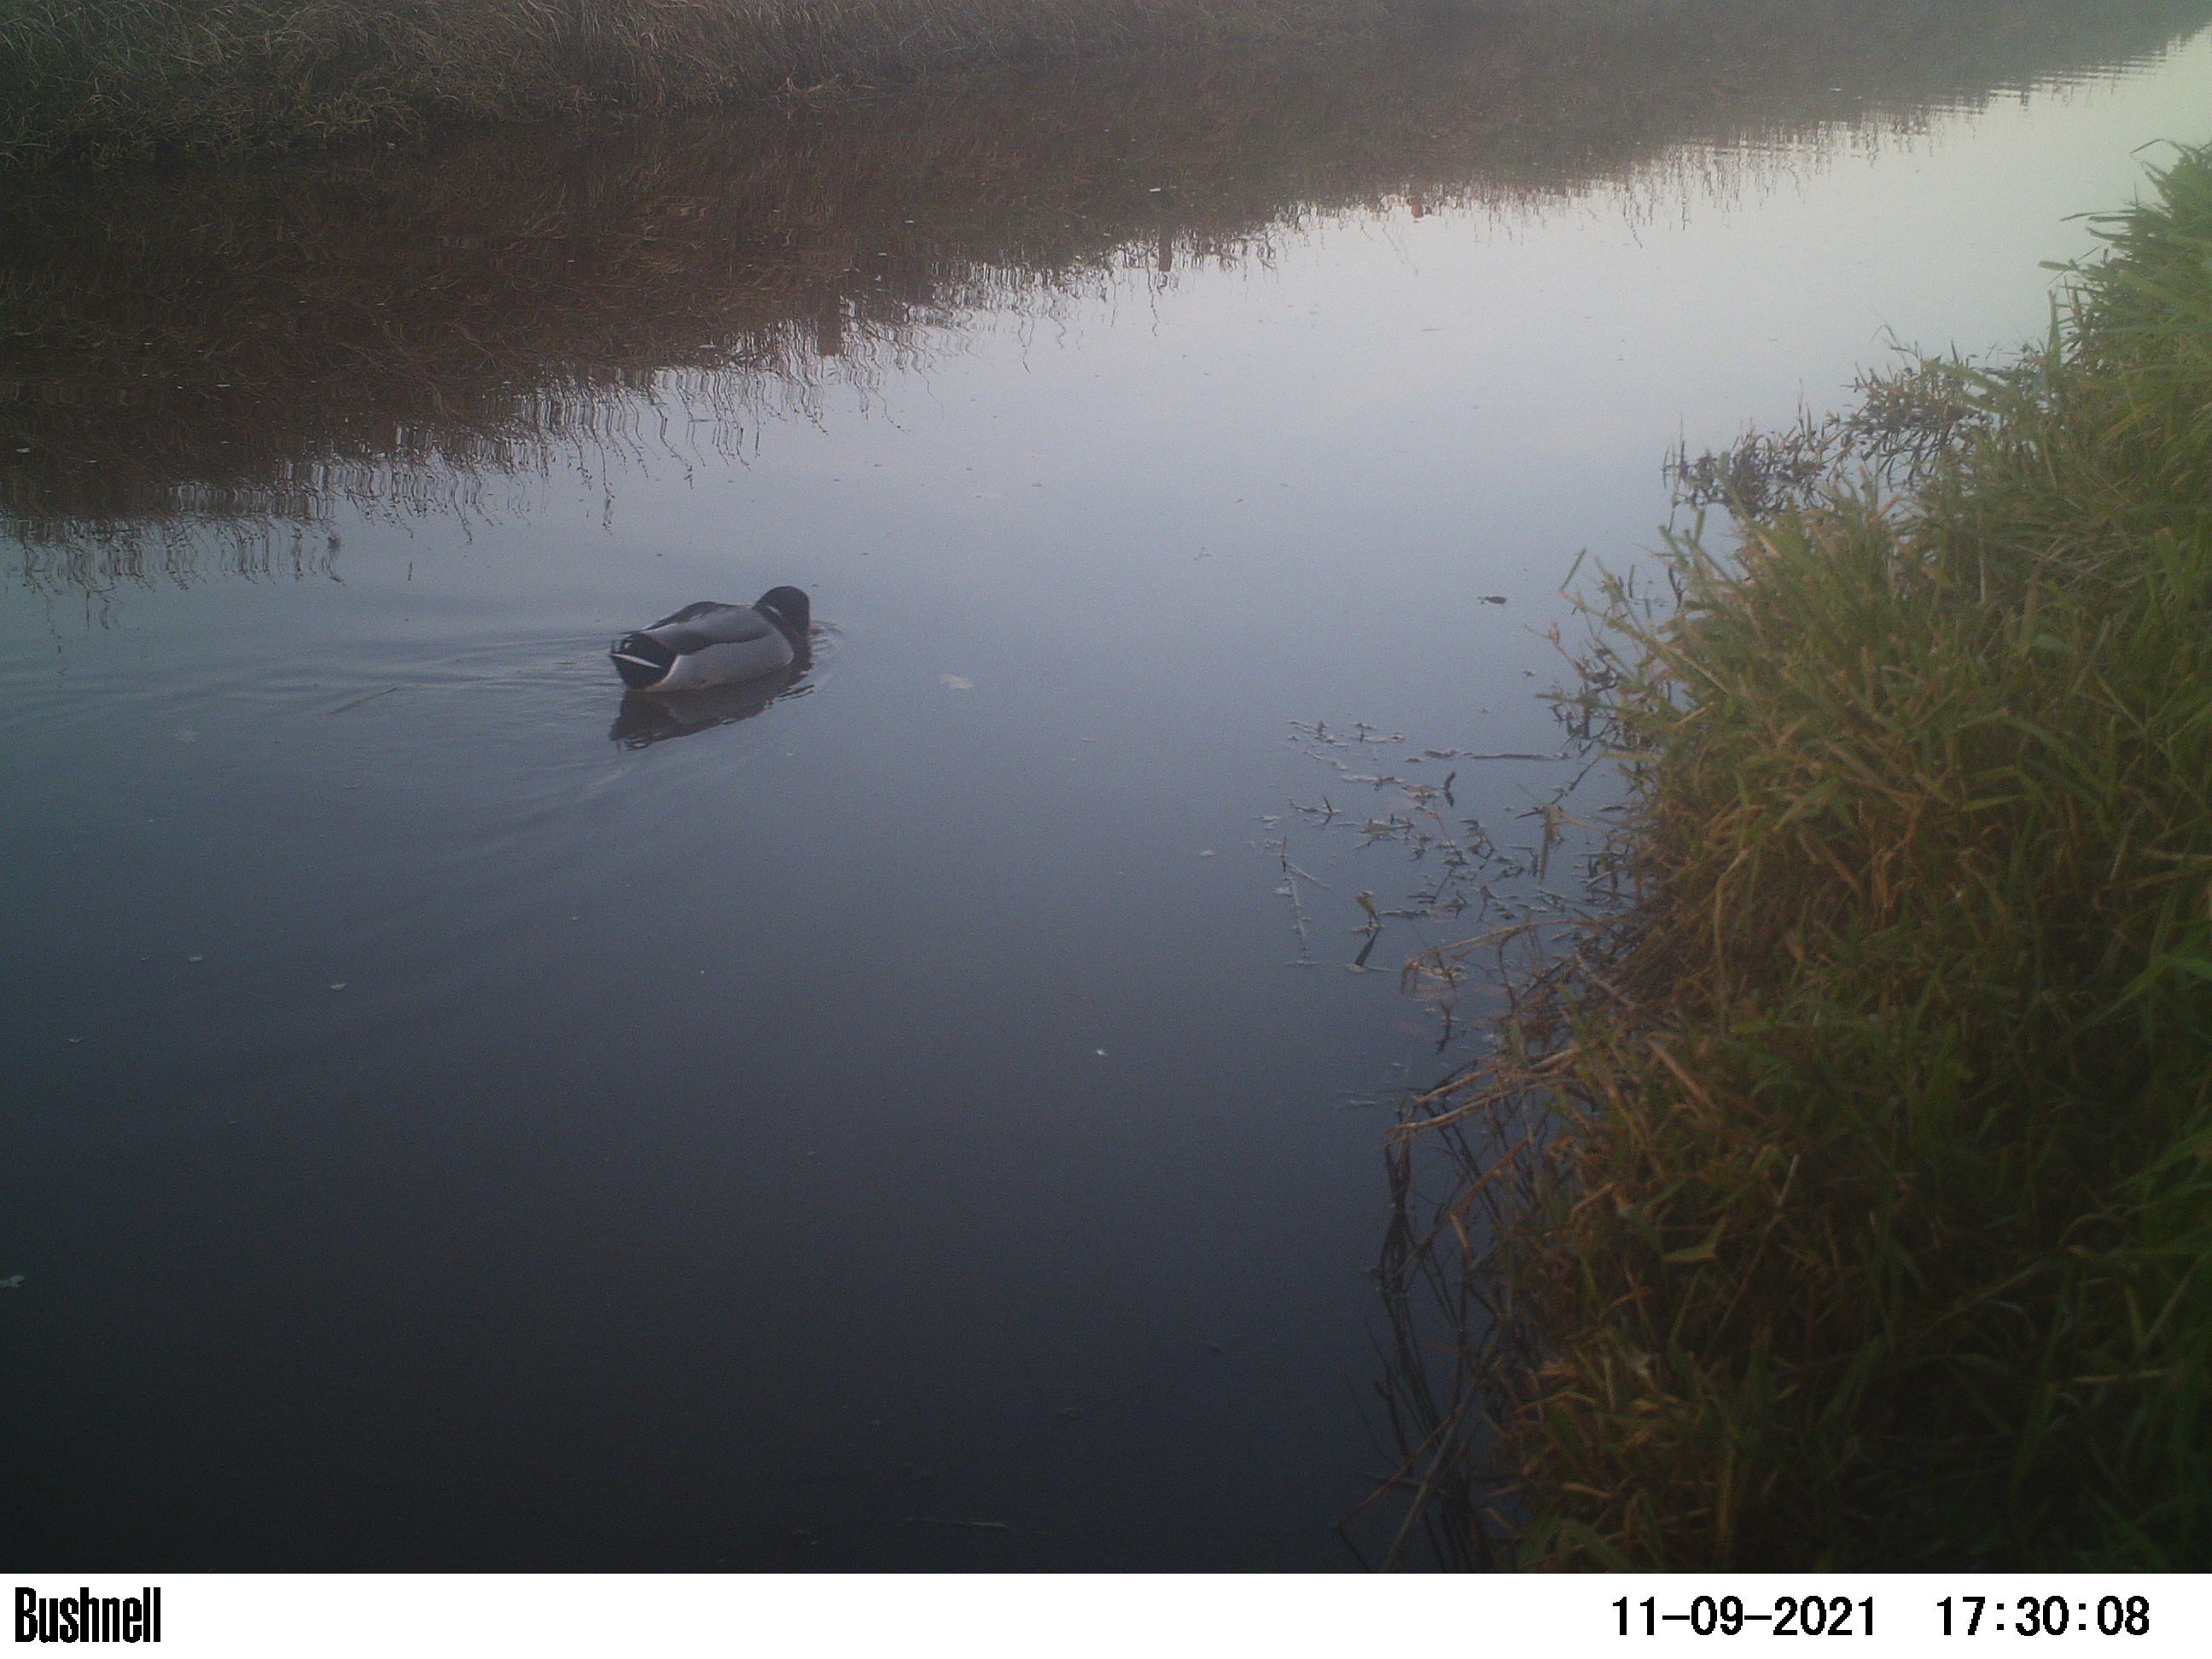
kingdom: Animalia
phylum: Chordata
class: Aves
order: Anseriformes
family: Anatidae
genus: Anas
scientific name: Anas
